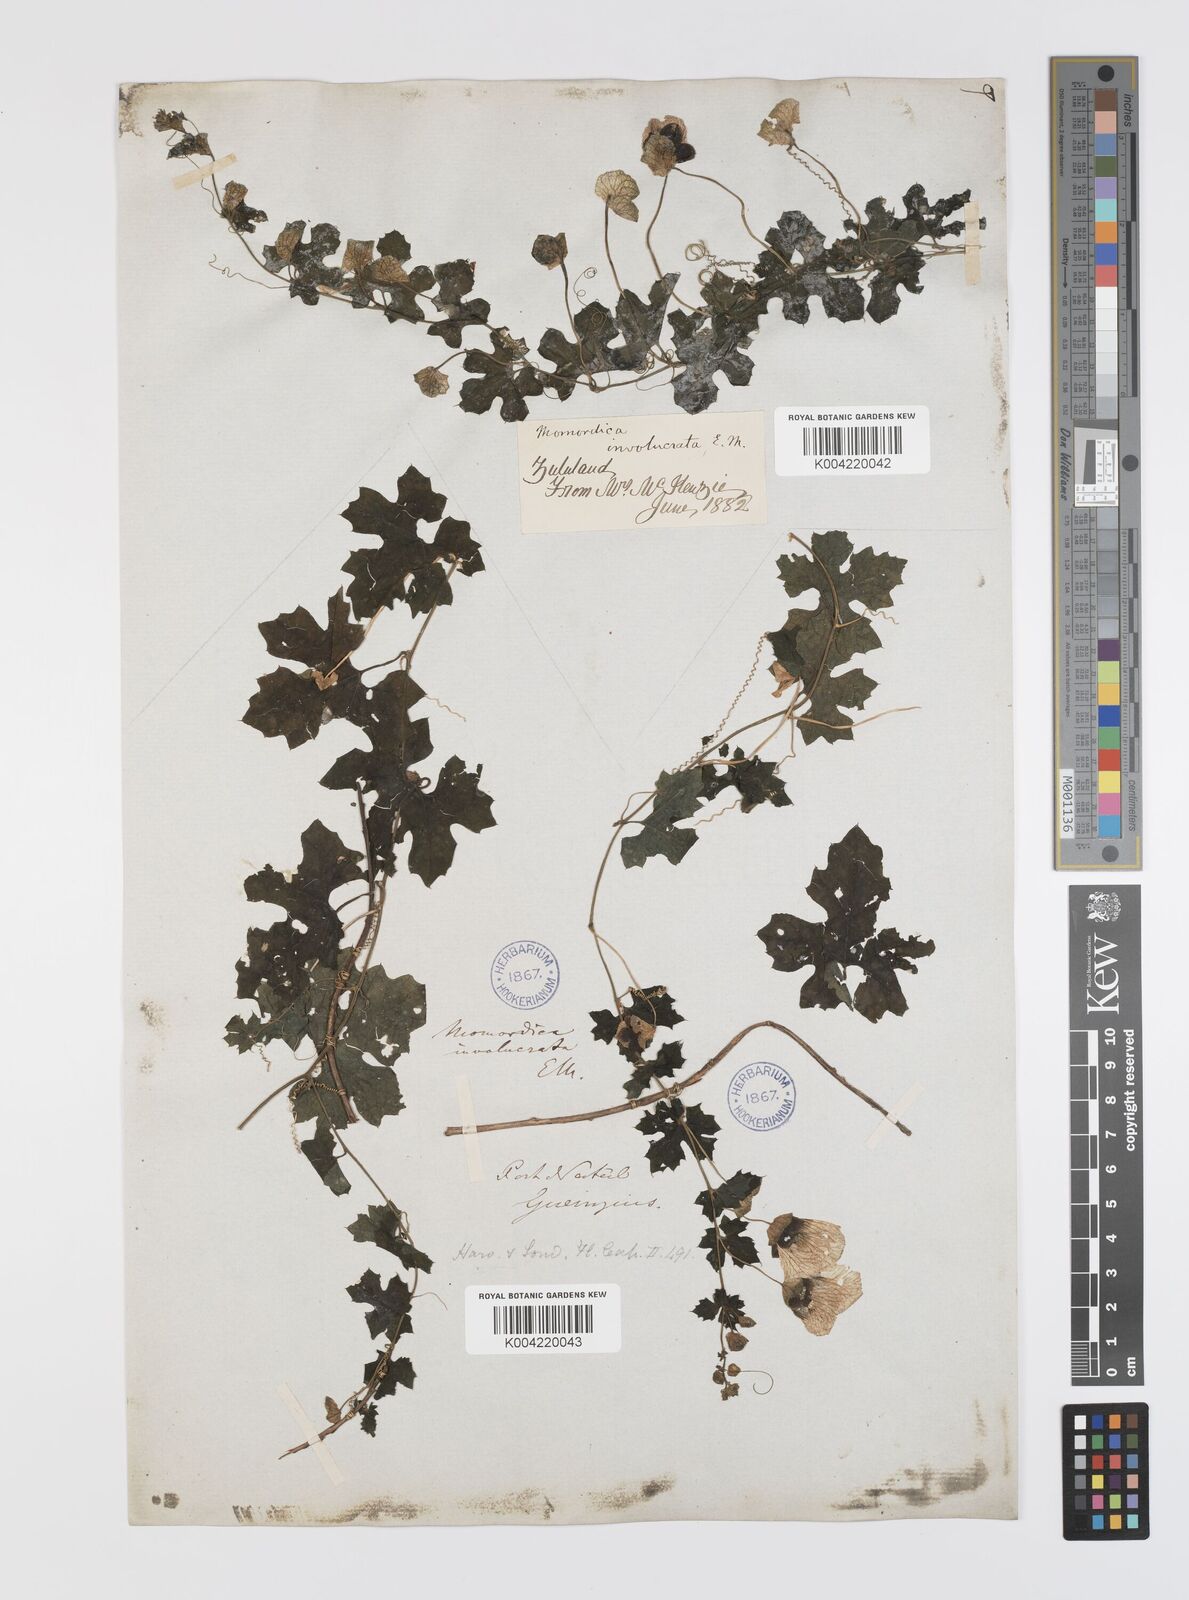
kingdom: Plantae
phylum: Tracheophyta
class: Magnoliopsida
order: Cucurbitales
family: Cucurbitaceae
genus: Momordica
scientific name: Momordica balsamina
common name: Southern balsampear
